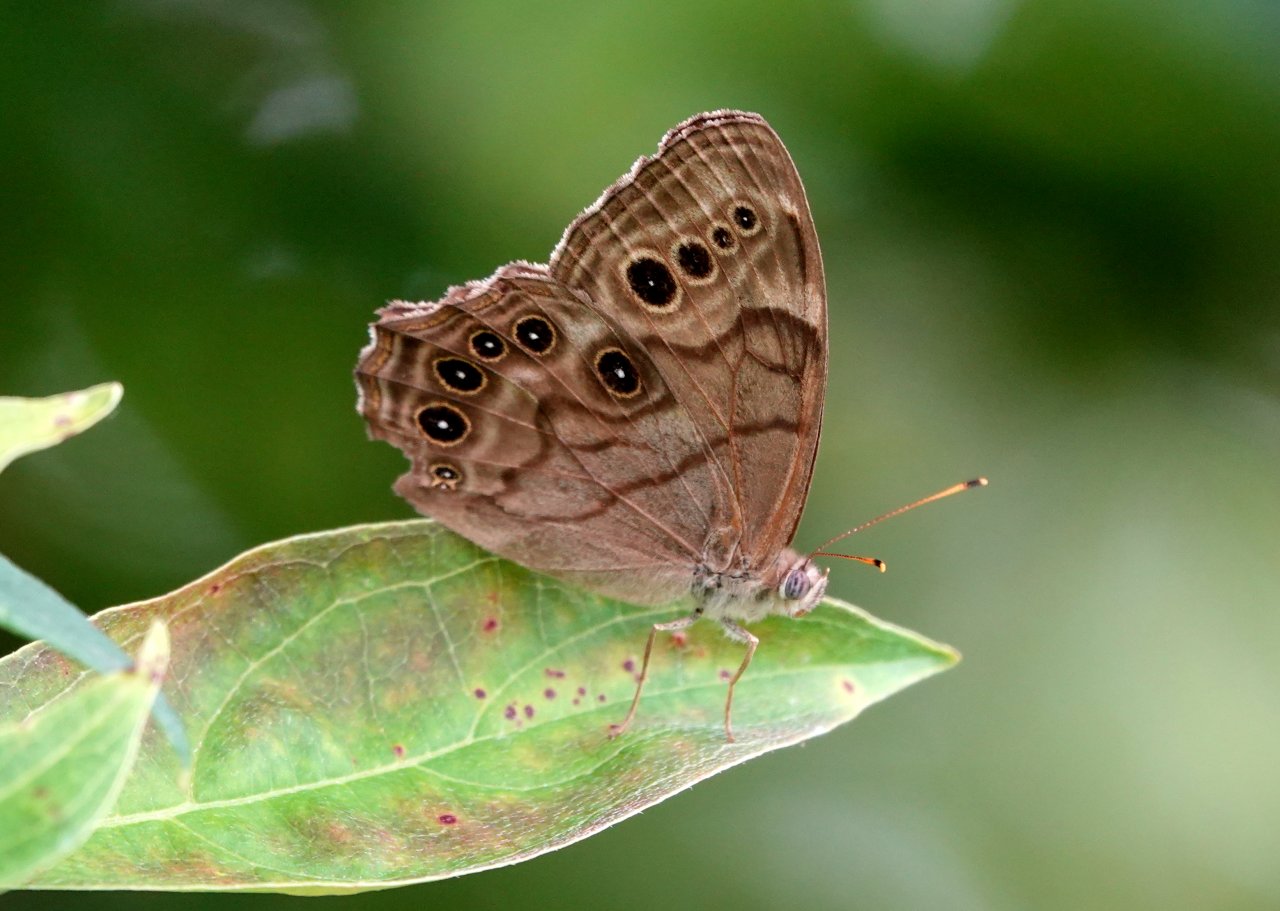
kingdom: Animalia
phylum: Arthropoda
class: Insecta
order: Lepidoptera
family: Nymphalidae
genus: Lethe
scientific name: Lethe anthedon
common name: Northern Pearly-Eye
